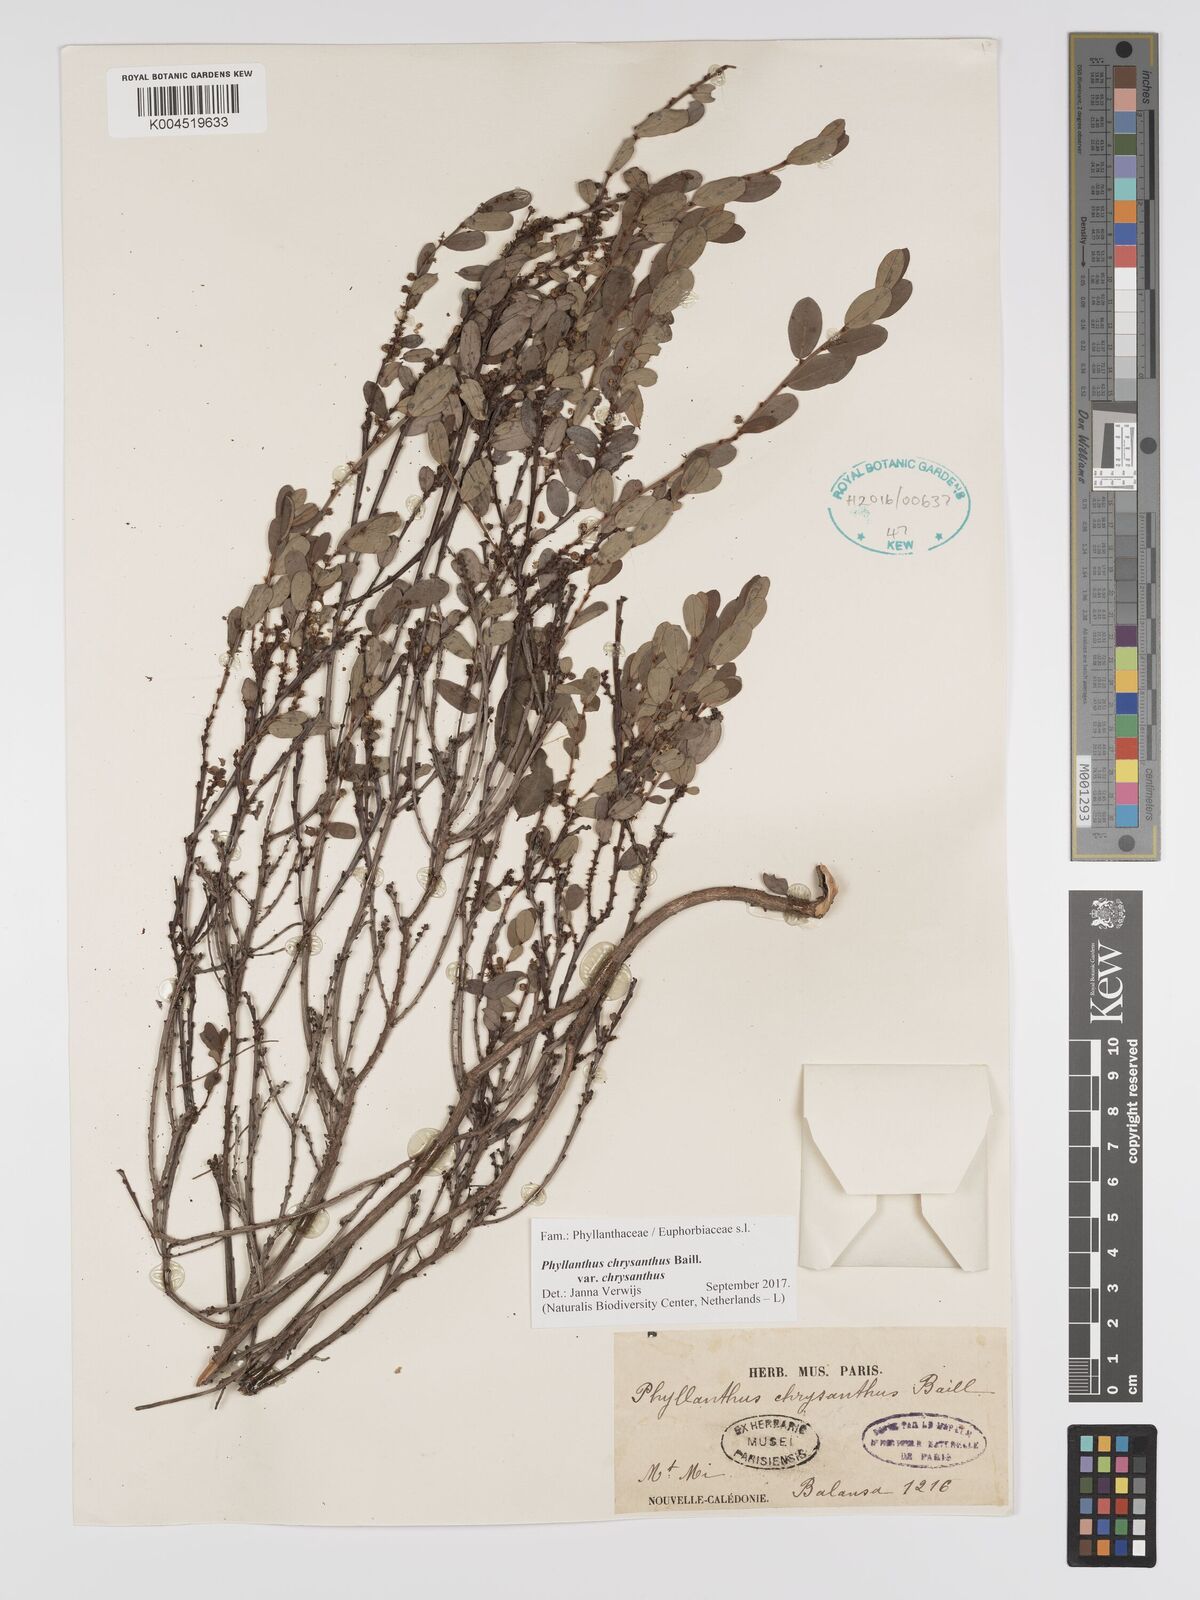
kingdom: Plantae
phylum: Tracheophyta
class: Magnoliopsida
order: Malpighiales
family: Phyllanthaceae
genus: Phyllanthus
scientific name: Phyllanthus chrysanthus
